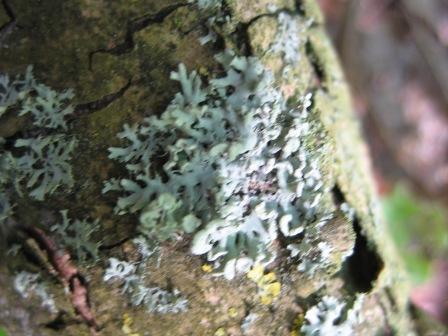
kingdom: Fungi
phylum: Ascomycota
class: Lecanoromycetes
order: Caliciales
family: Physciaceae
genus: Physcia
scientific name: Physcia tenella
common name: spæd rosetlav
